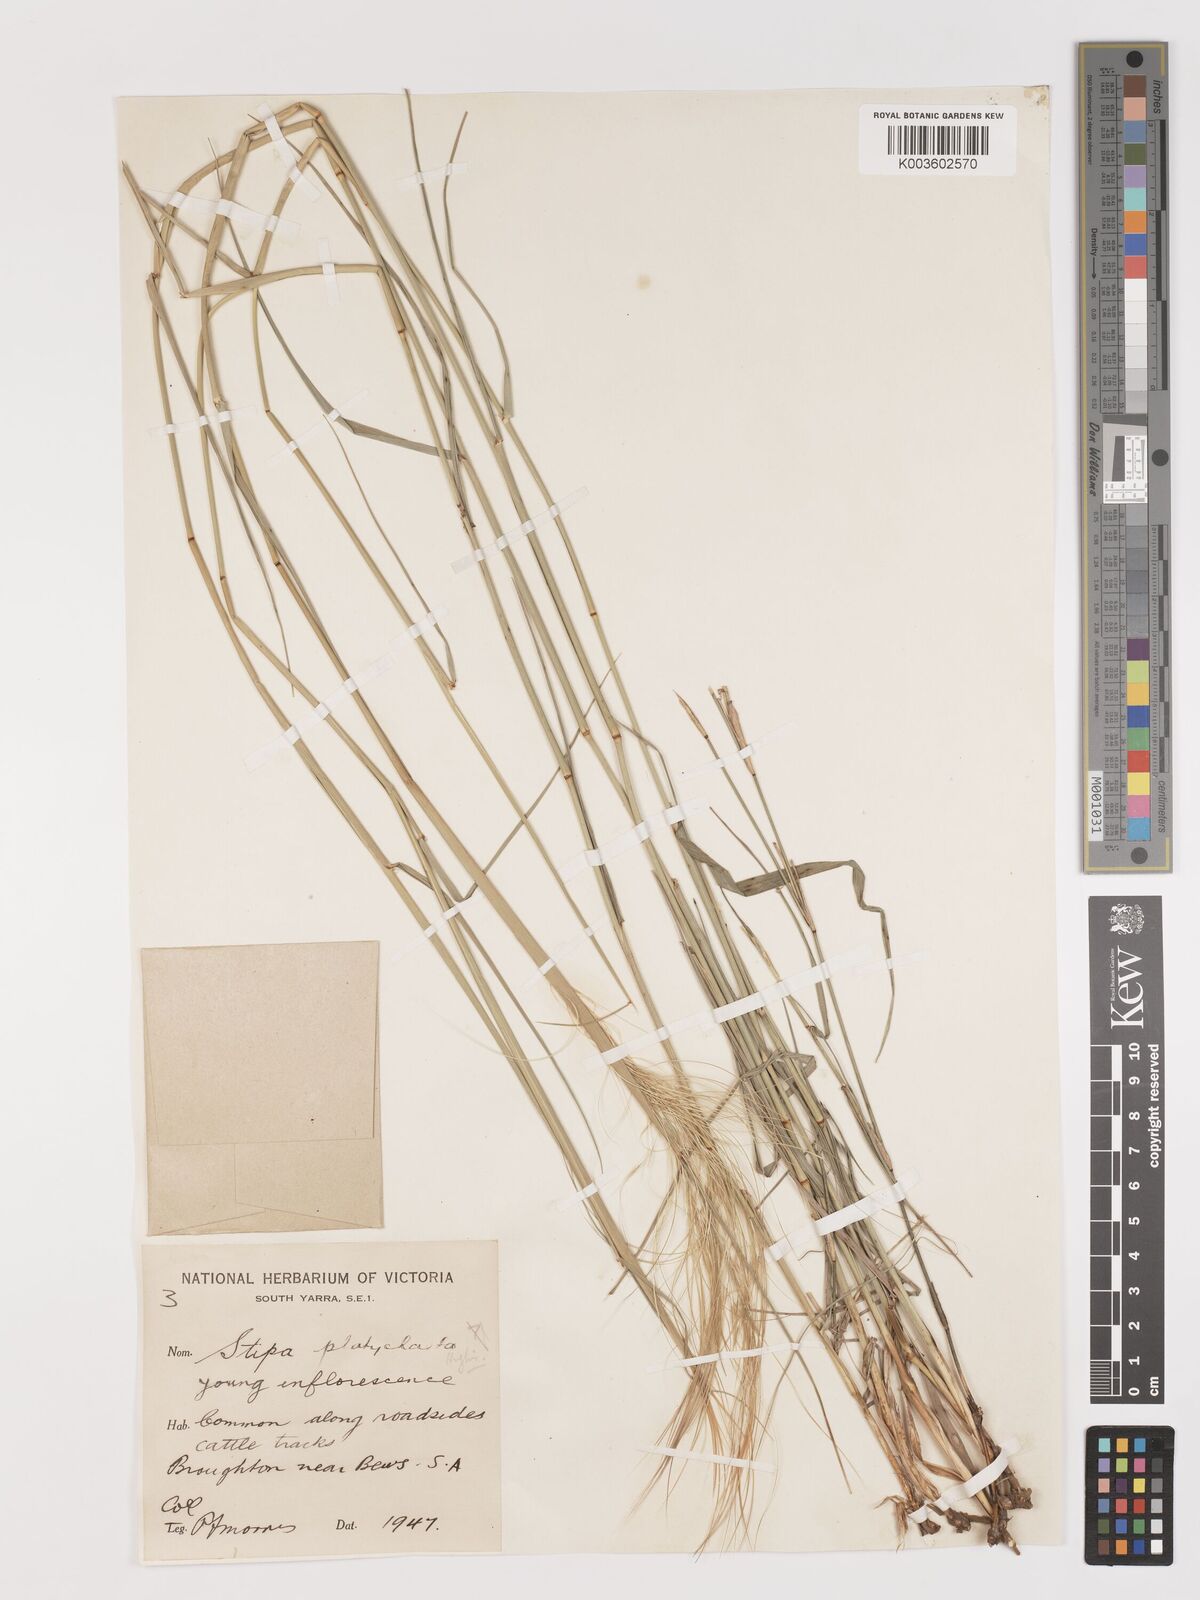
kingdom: Plantae
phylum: Tracheophyta
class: Liliopsida
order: Poales
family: Poaceae
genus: Austrostipa
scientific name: Austrostipa platychaeta
